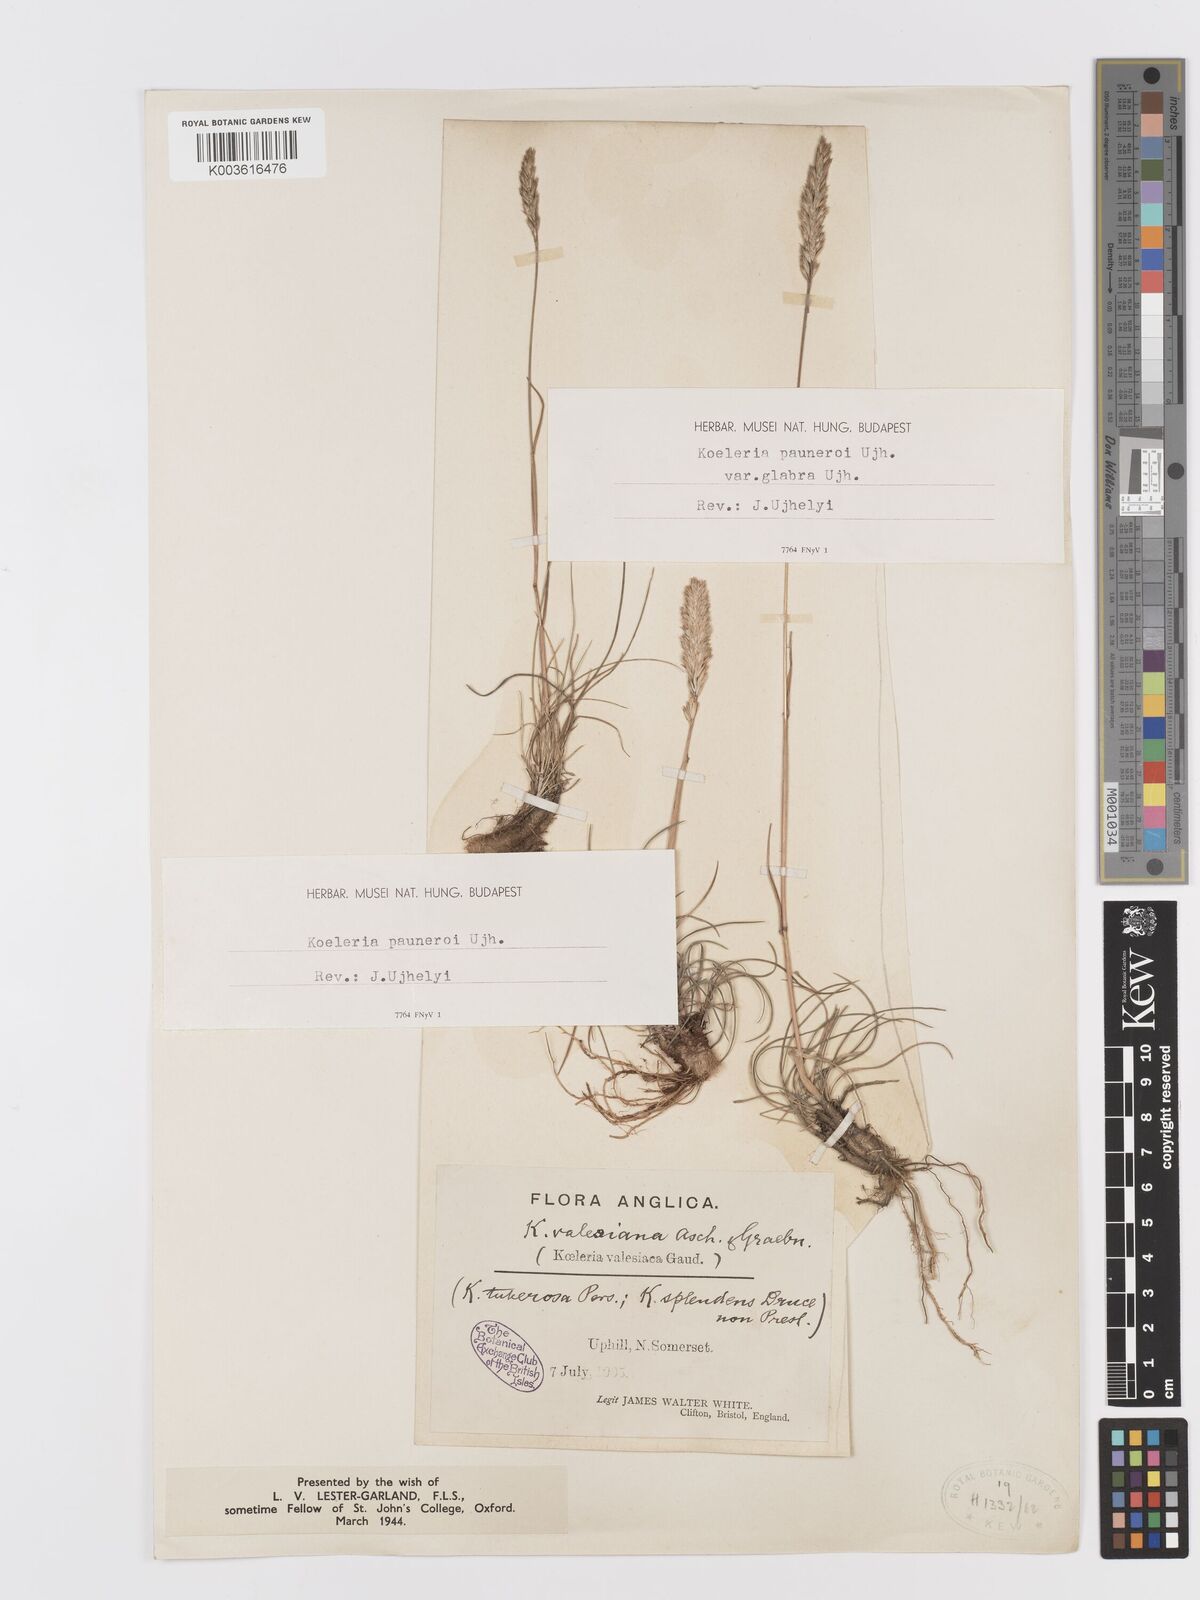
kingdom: Plantae
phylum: Tracheophyta
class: Liliopsida
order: Poales
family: Poaceae
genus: Koeleria
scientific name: Koeleria vallesiana
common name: Somerset hair-grass
